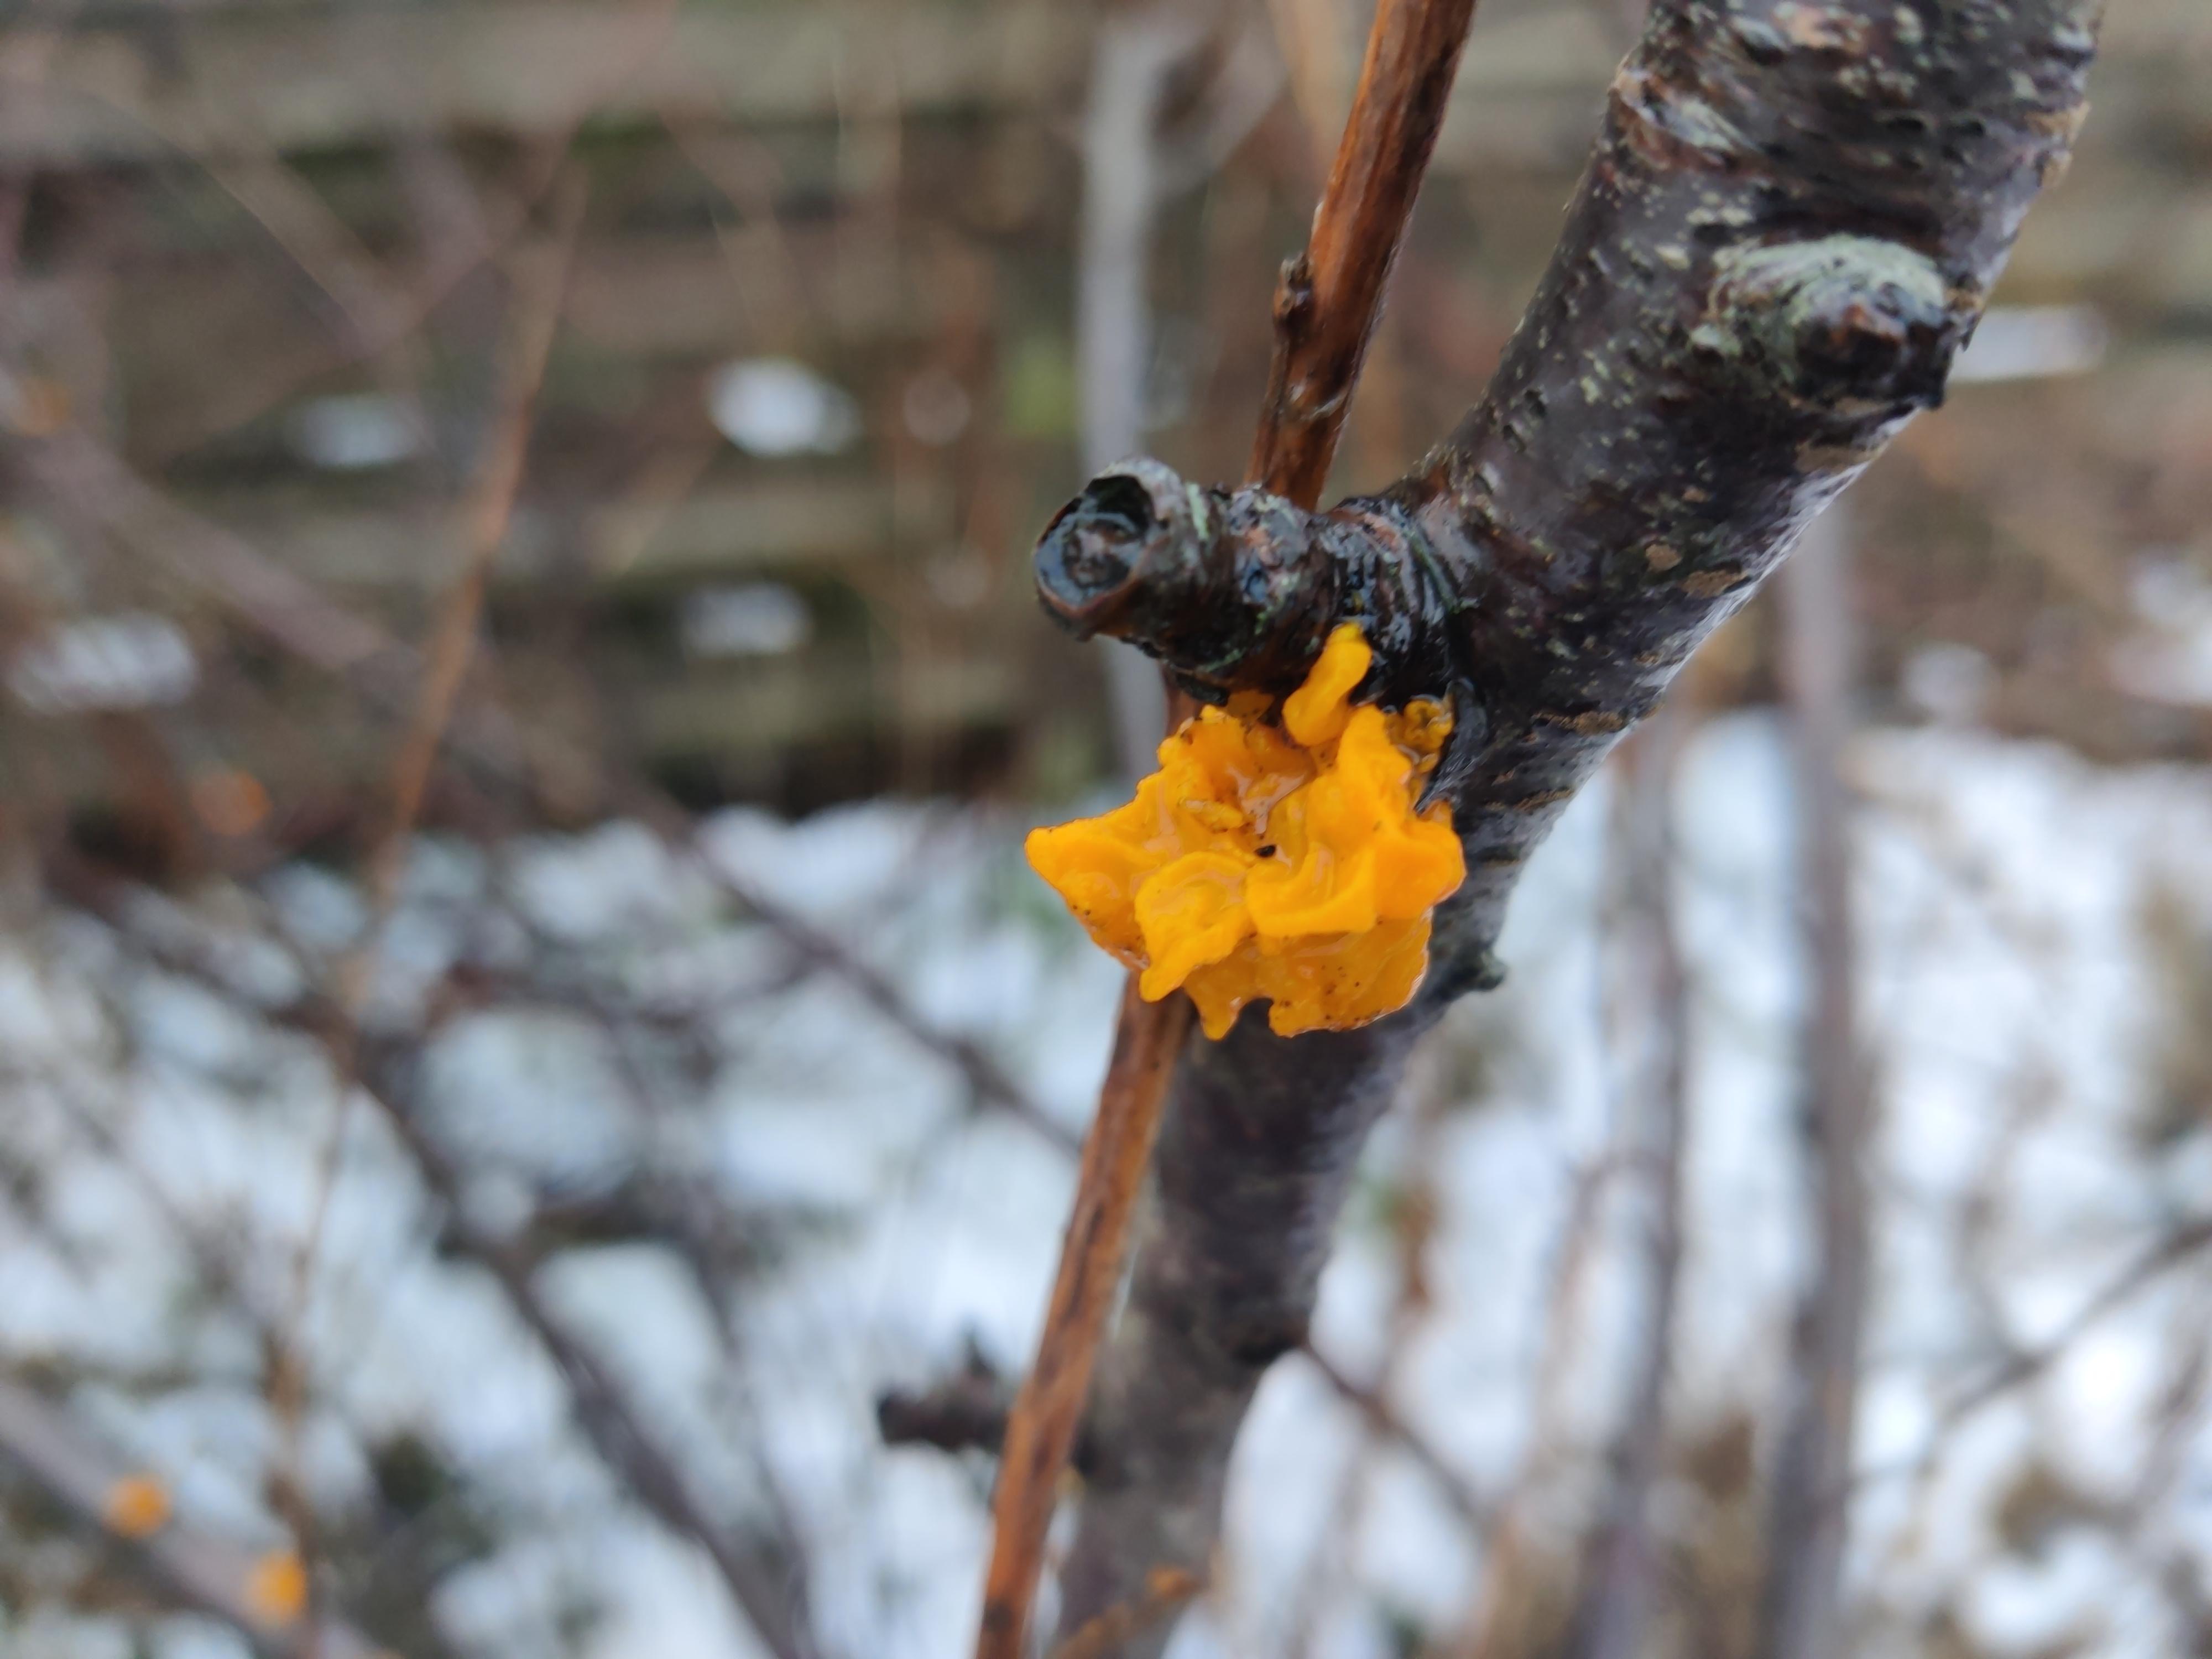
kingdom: Fungi
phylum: Basidiomycota
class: Tremellomycetes
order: Tremellales
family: Tremellaceae
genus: Tremella
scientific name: Tremella mesenterica
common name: gul bævresvamp
